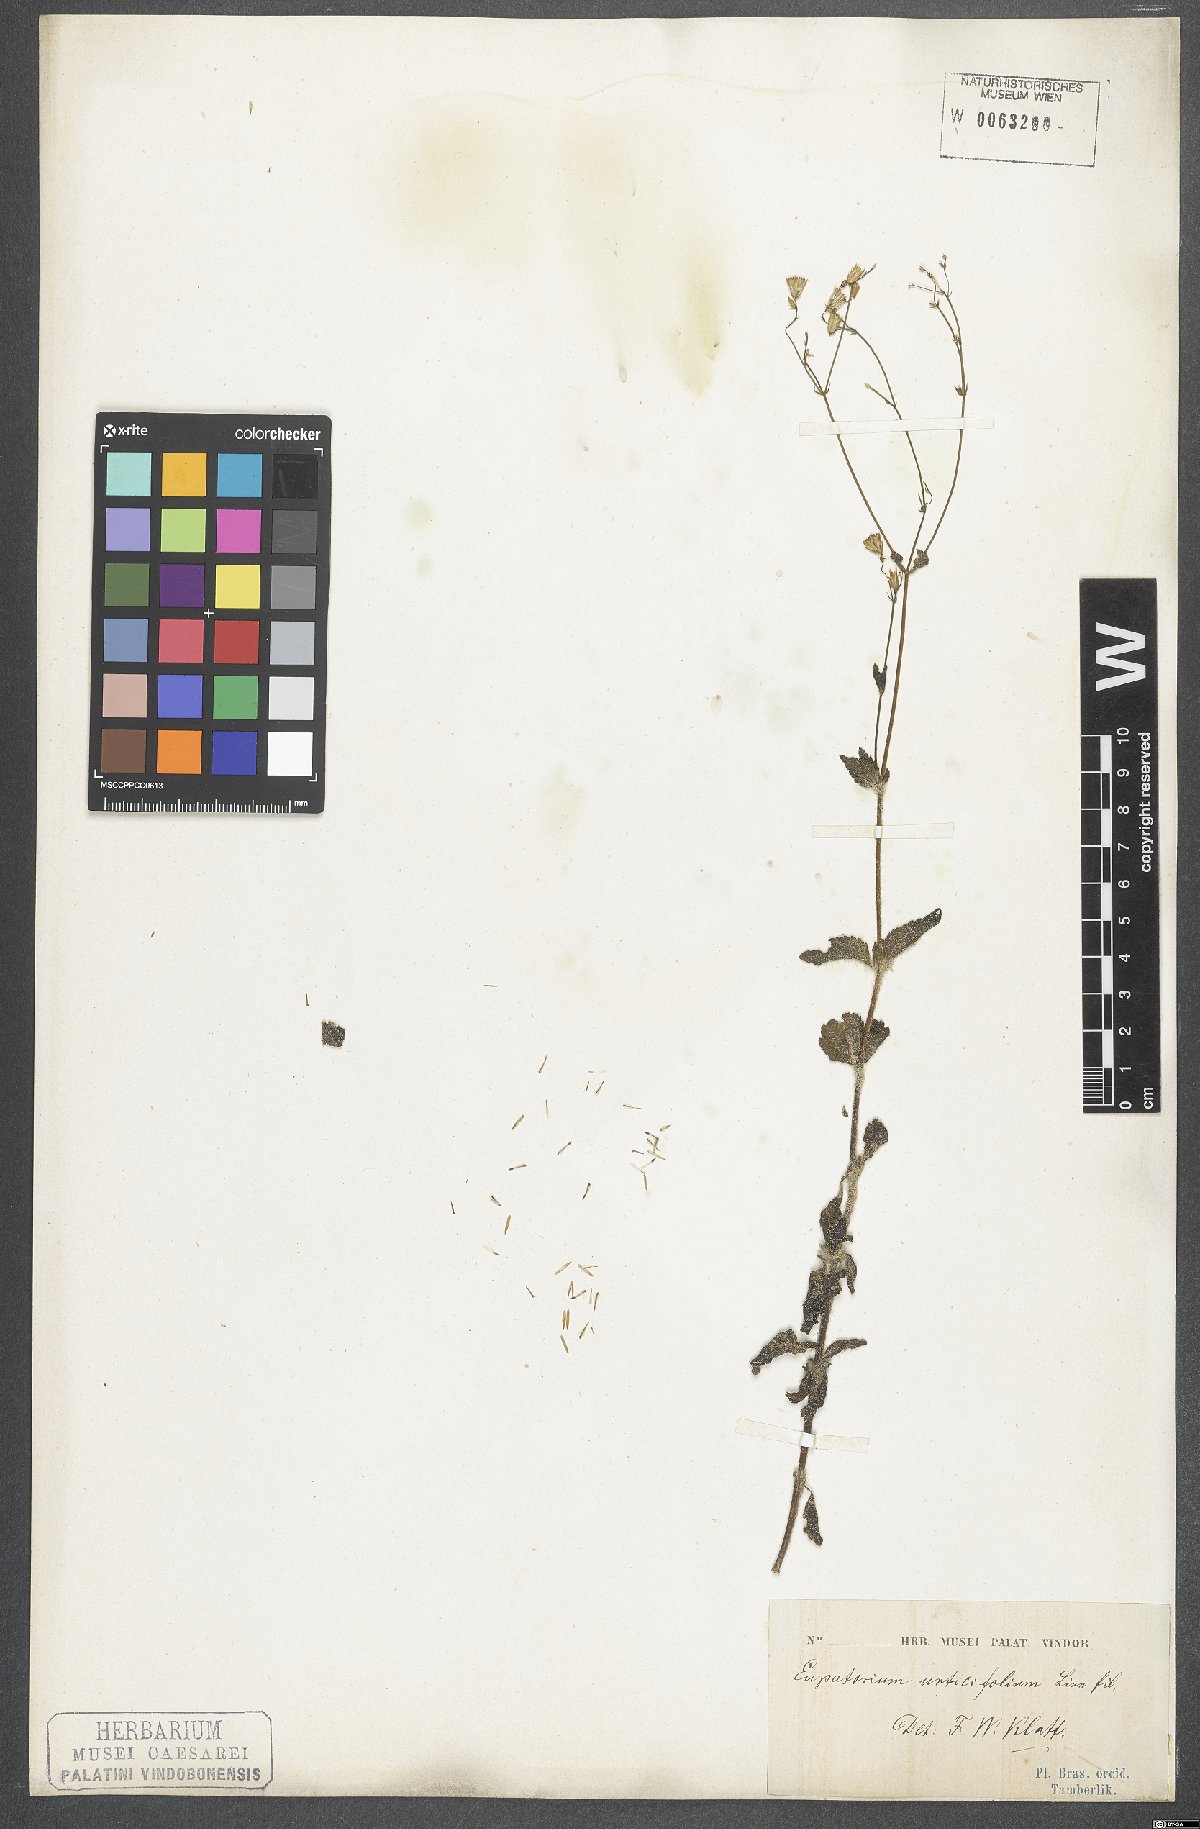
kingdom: Plantae
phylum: Tracheophyta
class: Magnoliopsida
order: Asterales
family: Asteraceae
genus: Ageratina
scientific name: Ageratina altissima
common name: White snakeroot
